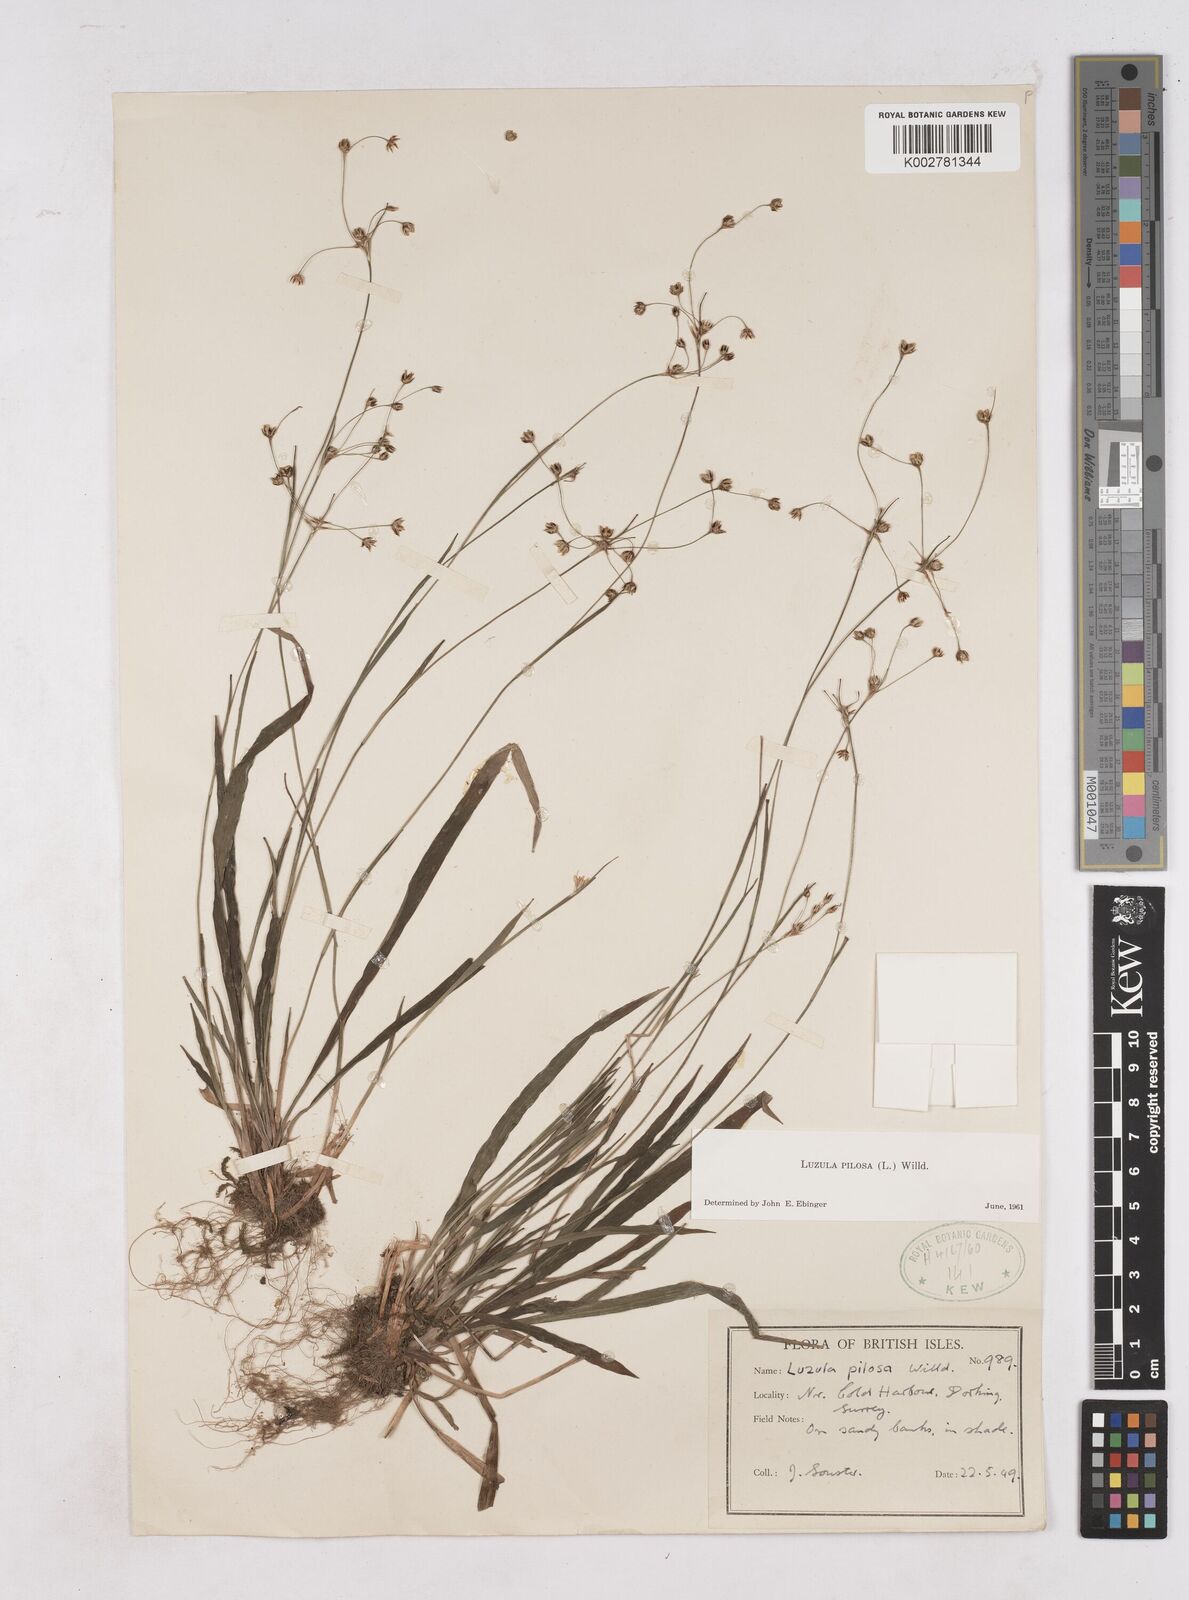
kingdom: Plantae
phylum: Tracheophyta
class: Liliopsida
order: Poales
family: Juncaceae
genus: Luzula
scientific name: Luzula pilosa
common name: Hairy wood-rush
